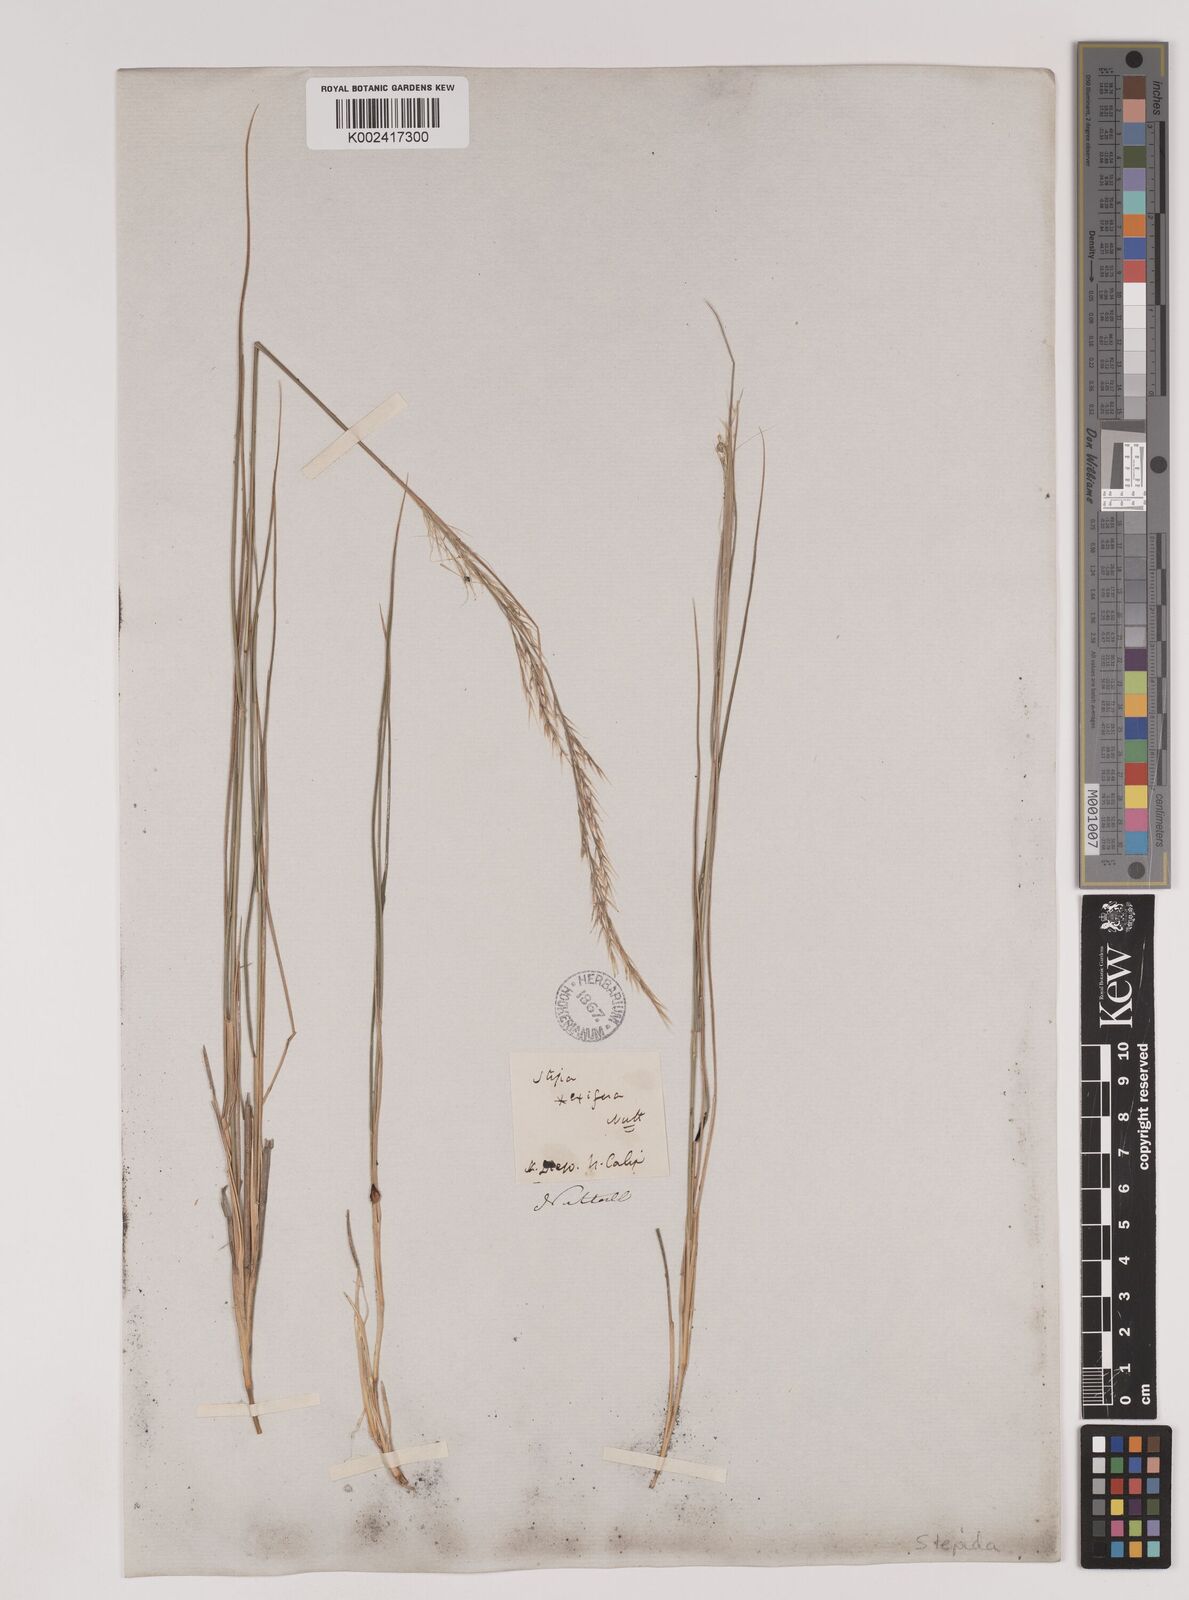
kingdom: Plantae
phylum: Tracheophyta
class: Liliopsida
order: Poales
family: Poaceae
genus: Nassella
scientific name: Nassella lepida
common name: Foothill needlegrass
